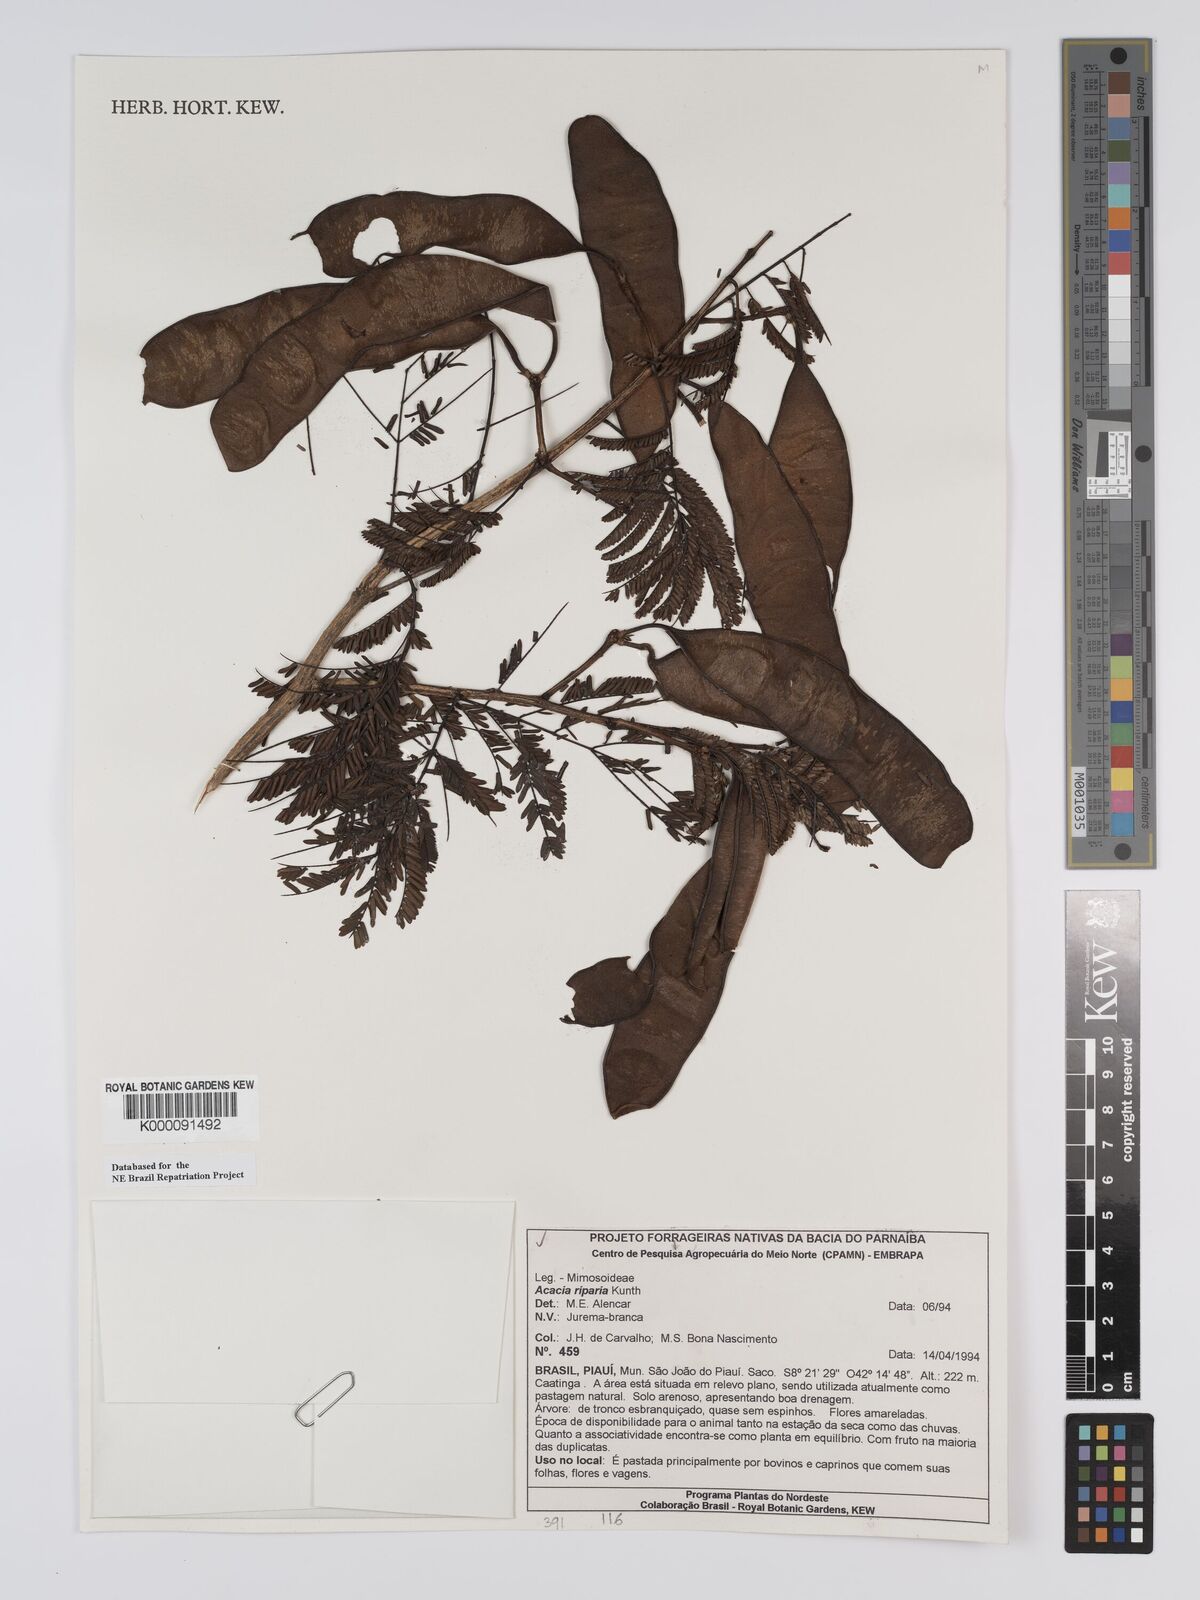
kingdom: Plantae
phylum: Tracheophyta
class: Magnoliopsida
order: Fabales
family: Fabaceae
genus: Senegalia
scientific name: Senegalia riparia
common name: Catch-and-keep
